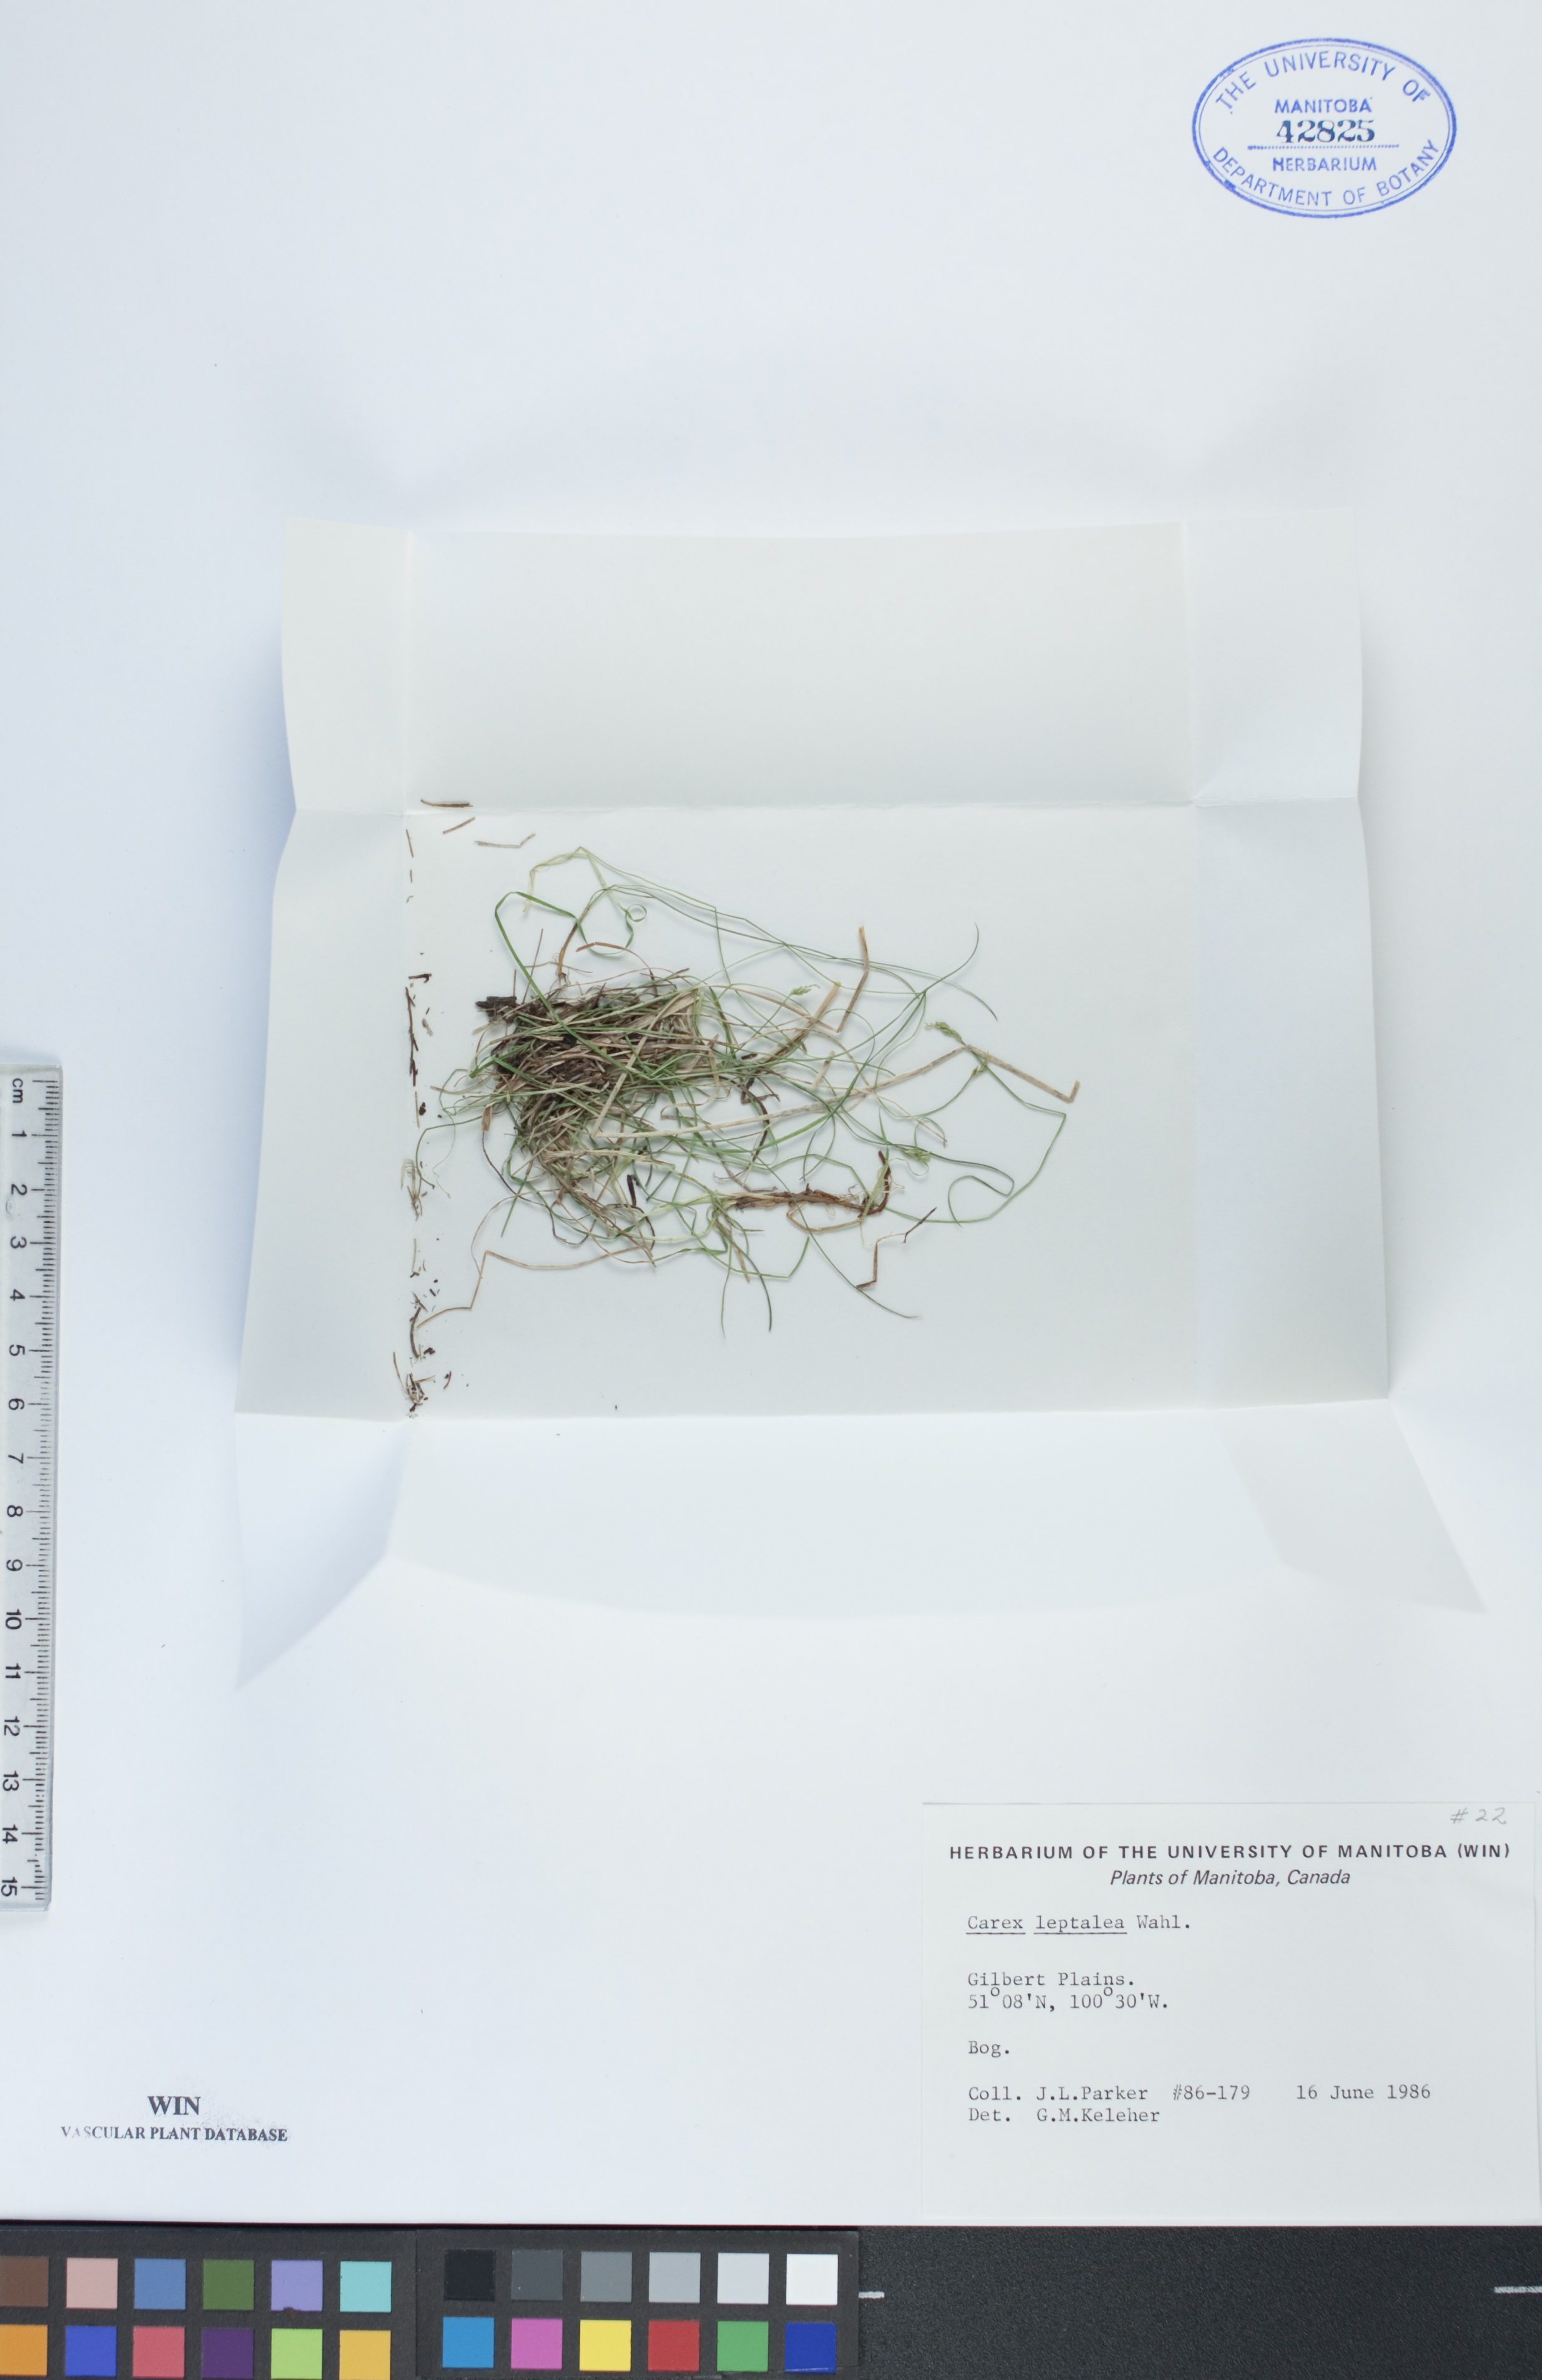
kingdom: Plantae
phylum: Tracheophyta
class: Liliopsida
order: Poales
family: Cyperaceae
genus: Carex
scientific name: Carex leptalea
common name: Bristly-stalked sedge
